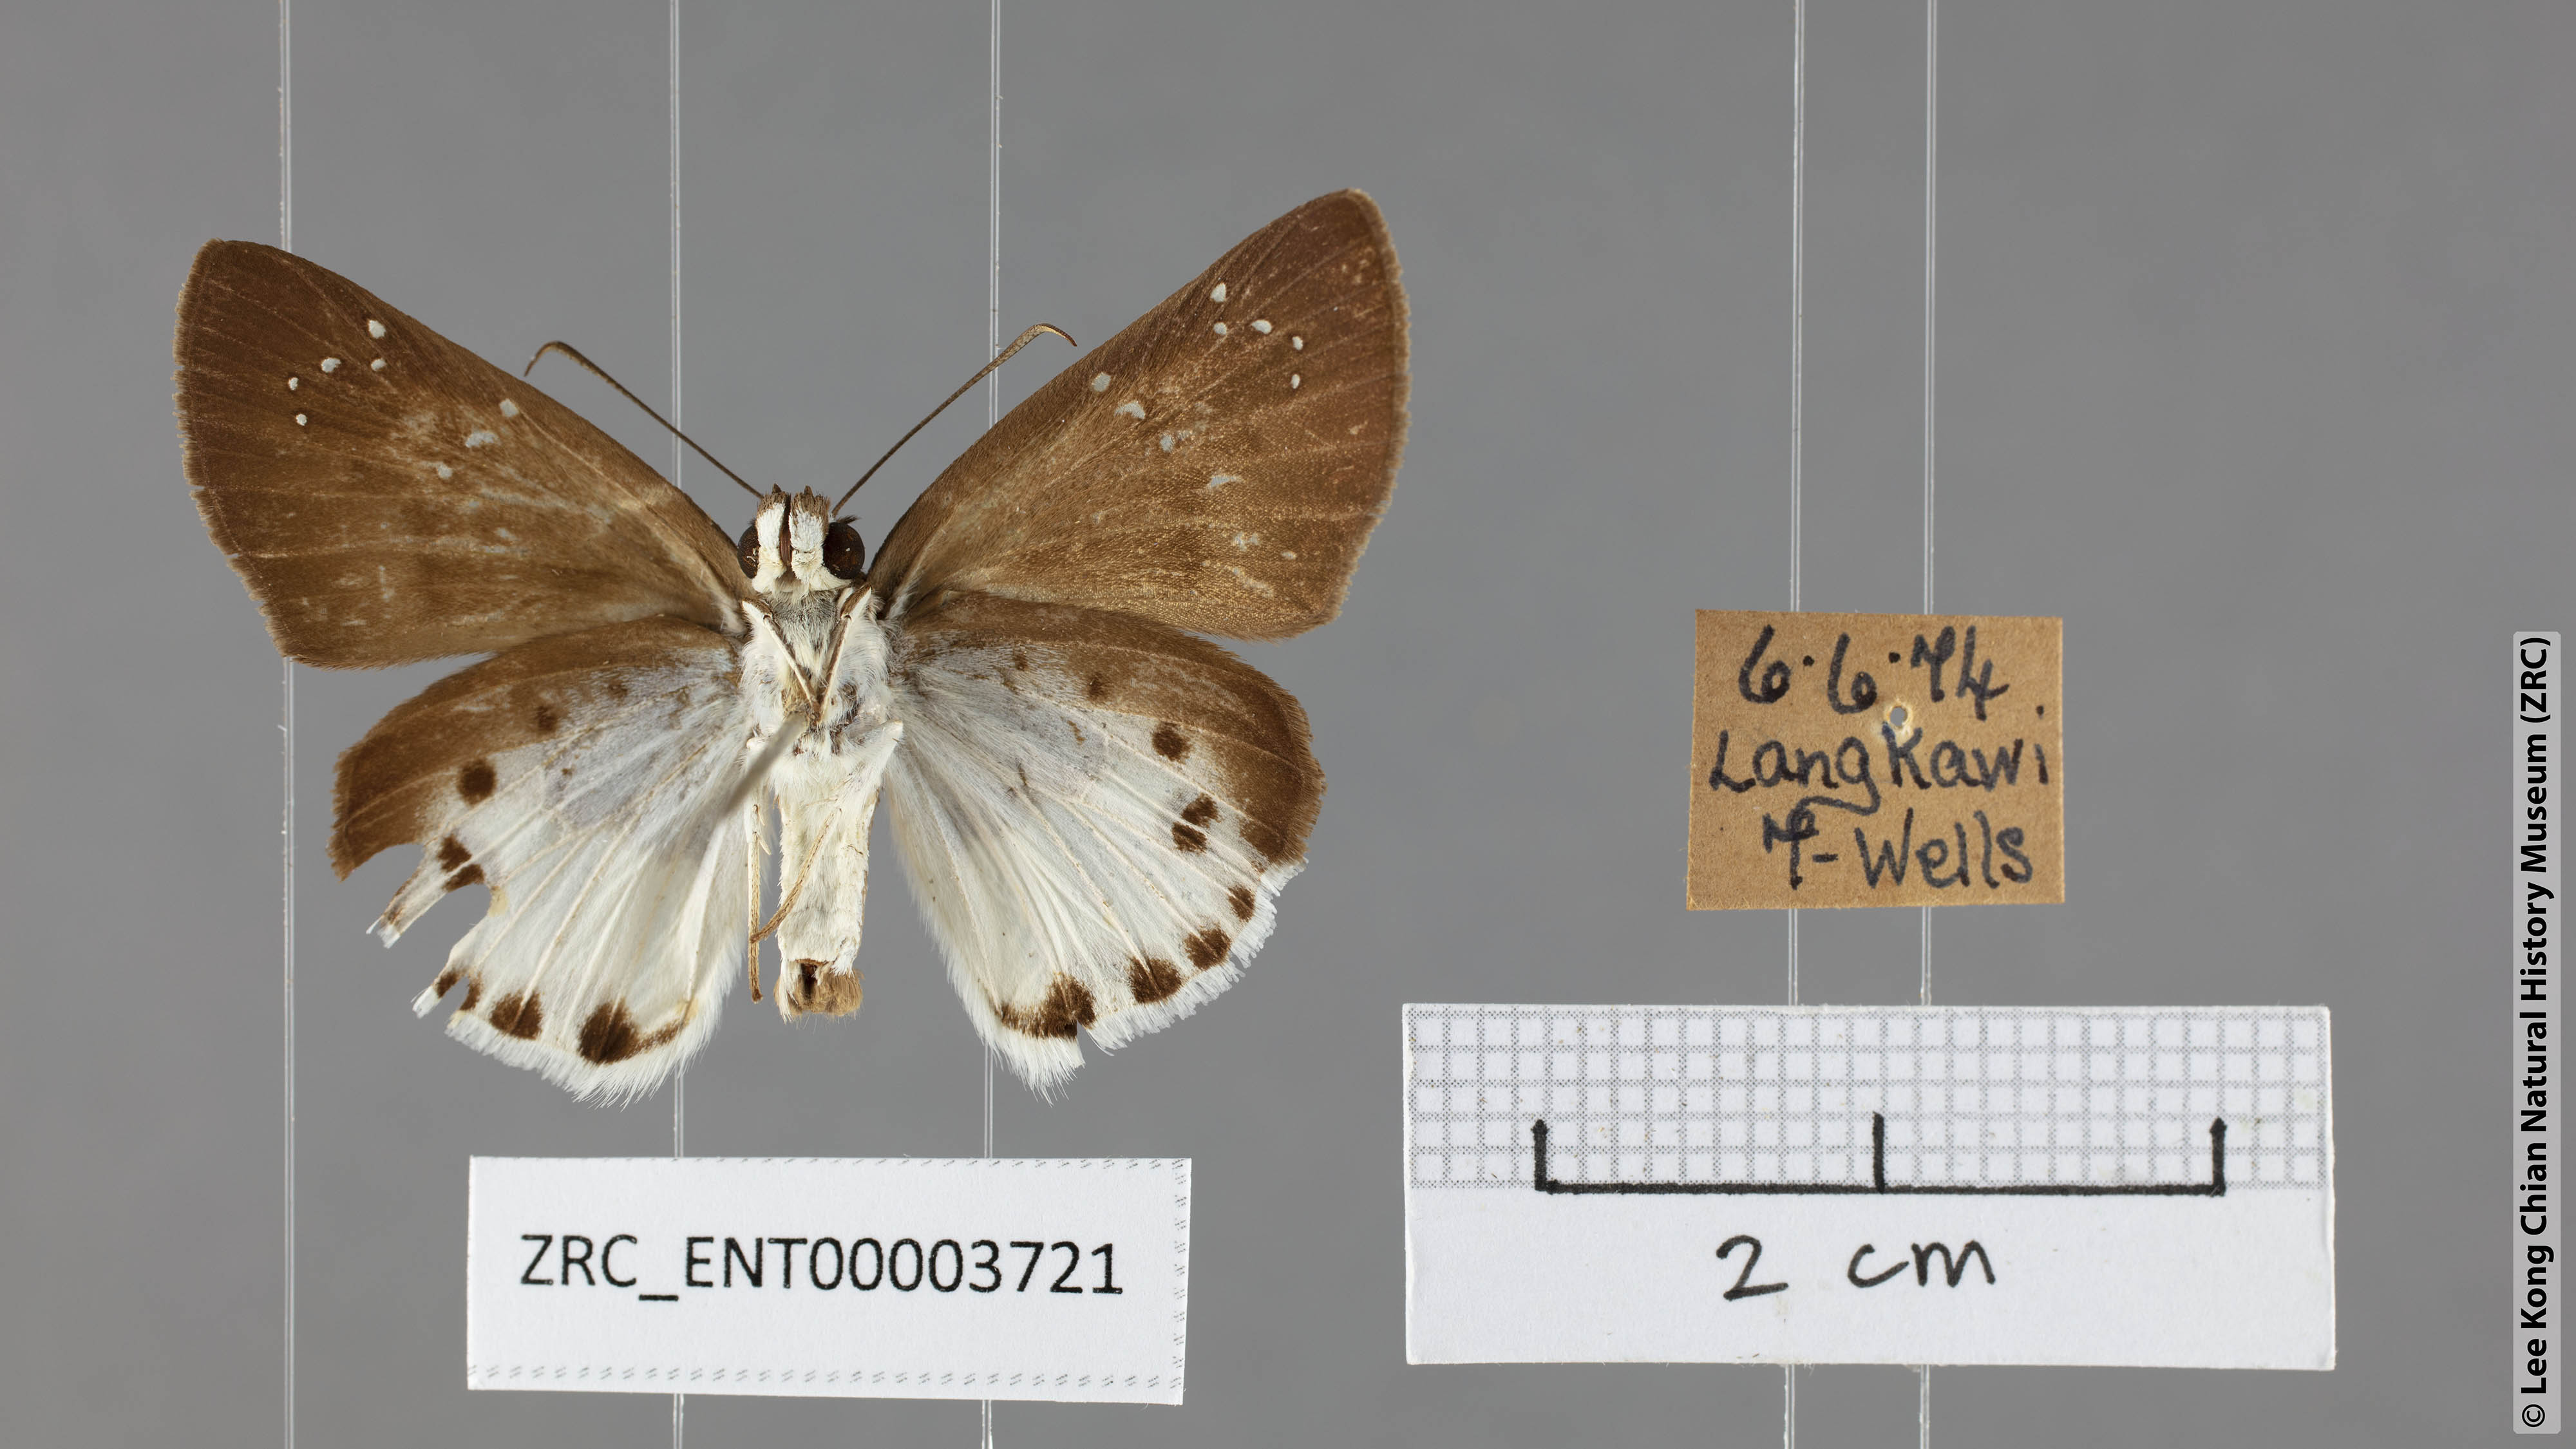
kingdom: Animalia
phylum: Arthropoda
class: Insecta
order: Lepidoptera
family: Hesperiidae
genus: Tagiades
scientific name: Tagiades litigiosa
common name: Water snow flat
